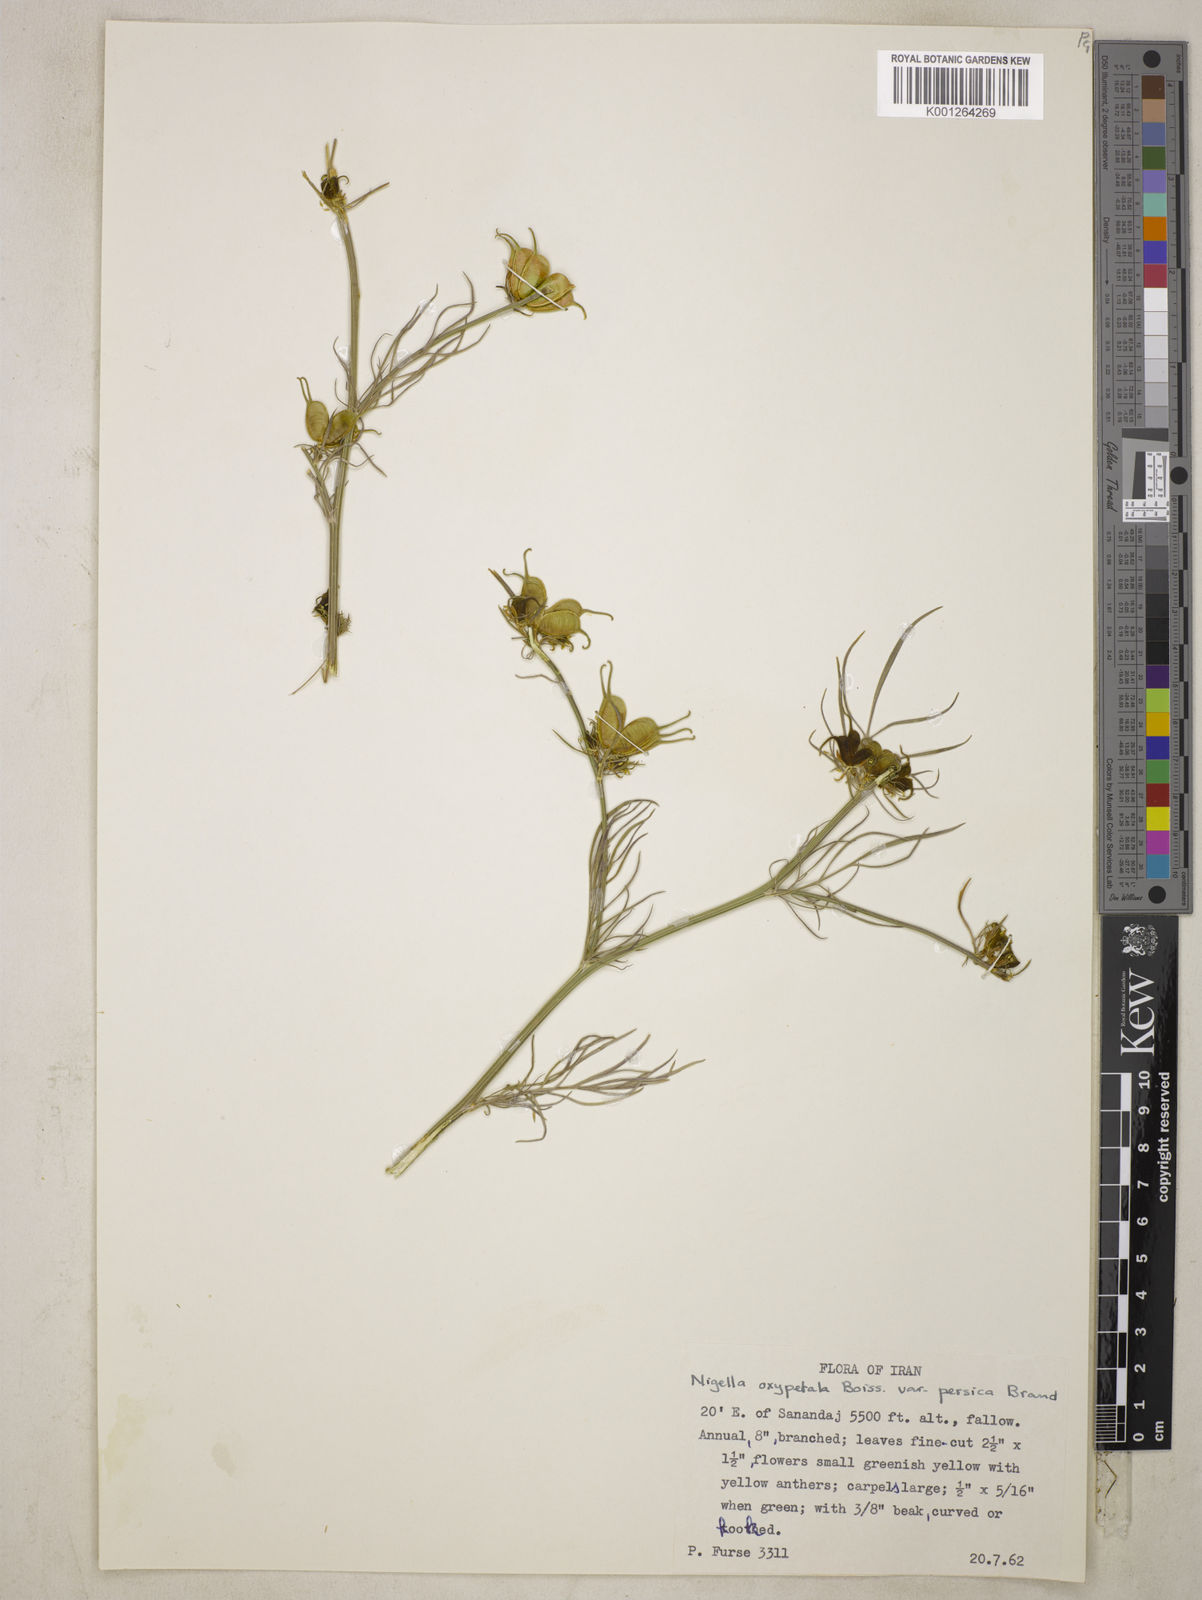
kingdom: Plantae
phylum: Tracheophyta
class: Magnoliopsida
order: Ranunculales
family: Ranunculaceae
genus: Nigella
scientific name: Nigella oxypetala
